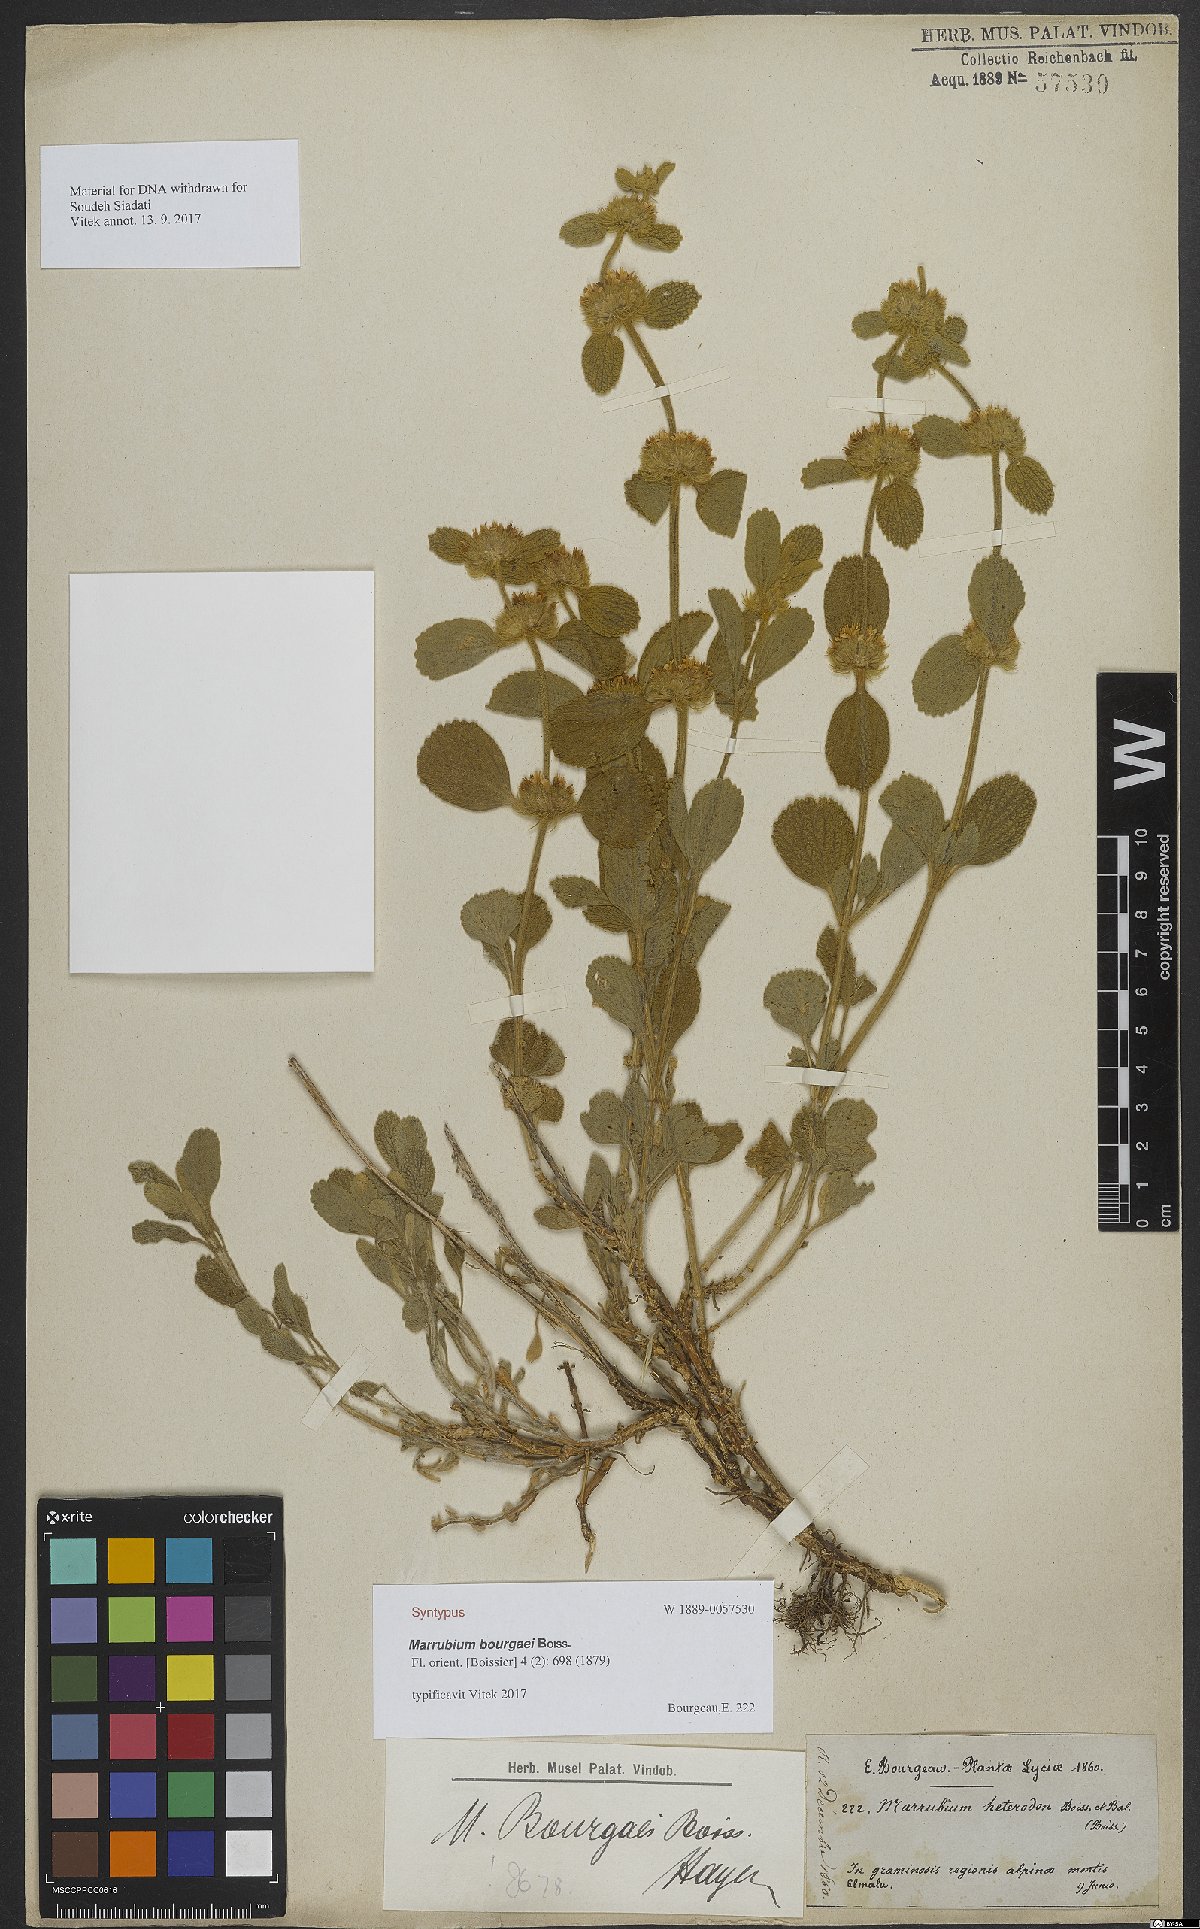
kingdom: Plantae
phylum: Tracheophyta
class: Magnoliopsida
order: Lamiales
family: Lamiaceae
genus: Marrubium
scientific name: Marrubium bourgaei
